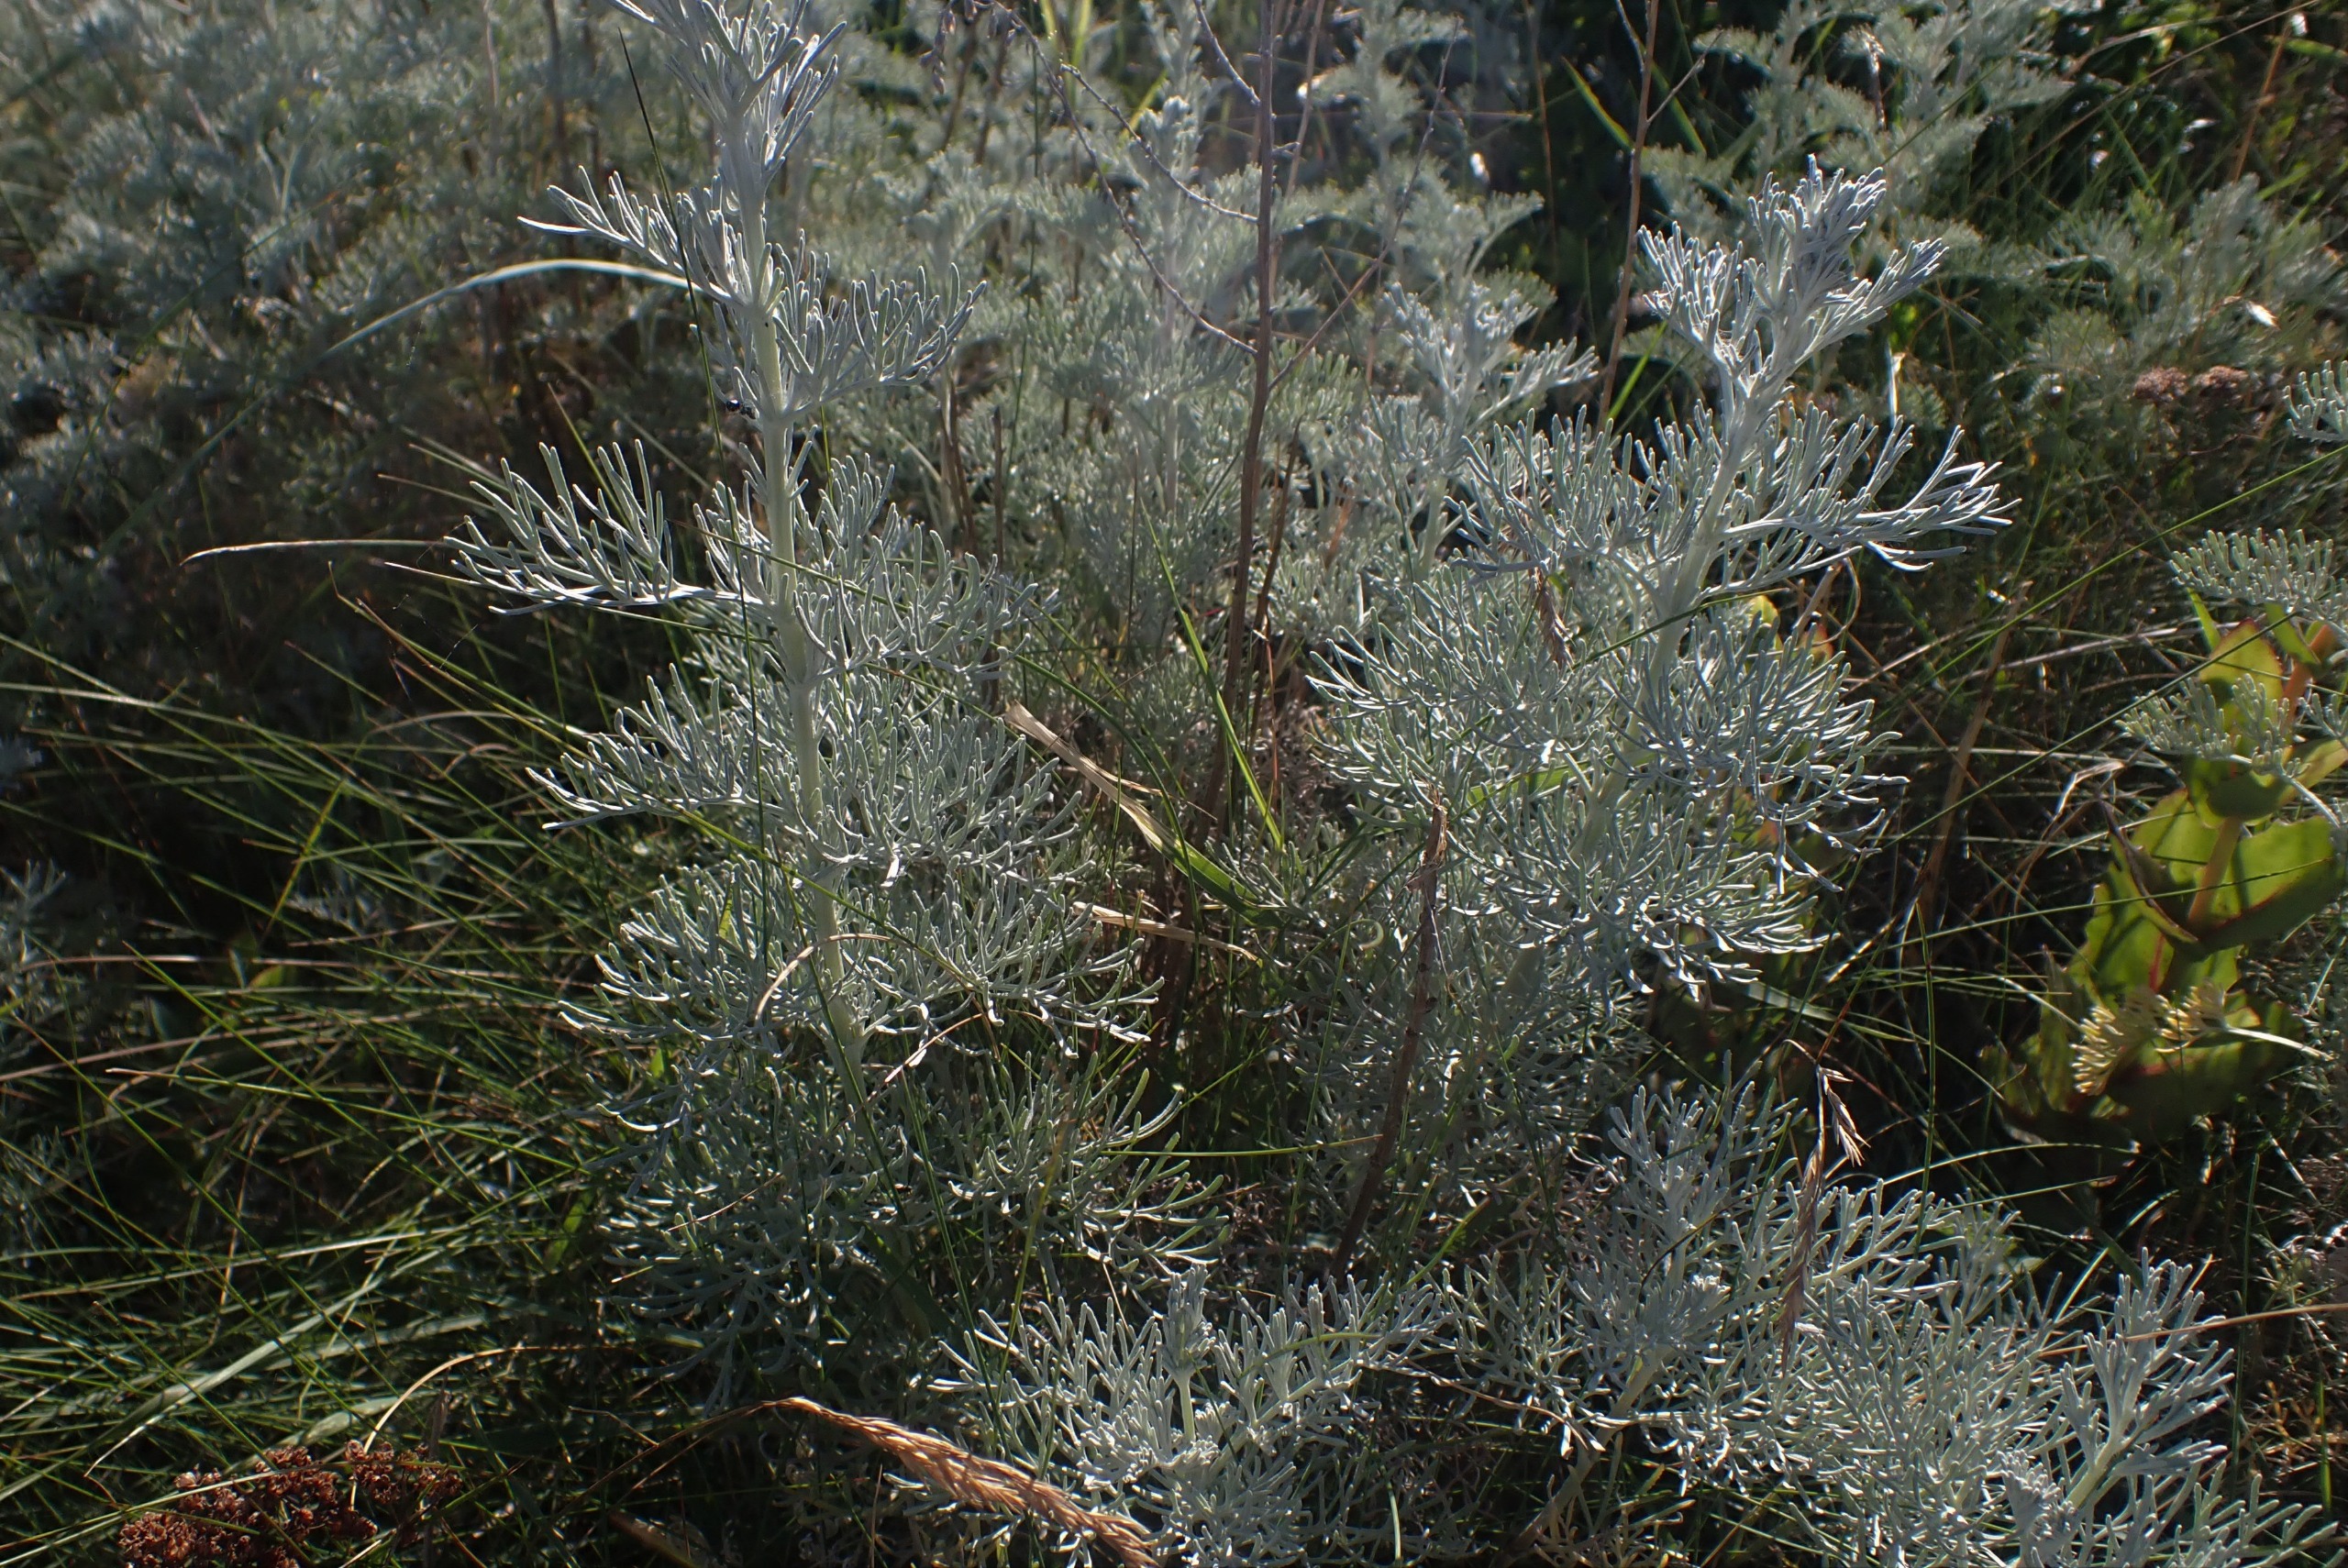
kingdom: Plantae
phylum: Tracheophyta
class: Magnoliopsida
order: Asterales
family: Asteraceae
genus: Artemisia
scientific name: Artemisia maritima
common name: Strandmalurt
